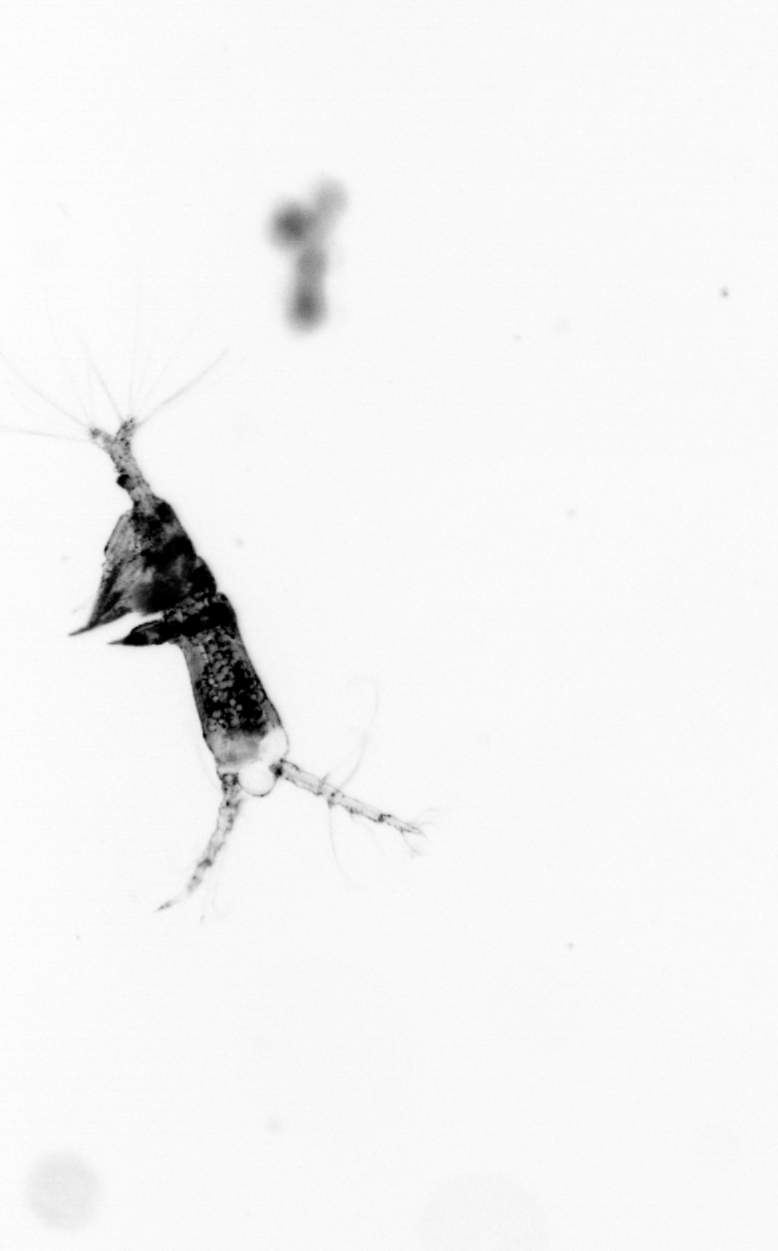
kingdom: Animalia
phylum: Arthropoda
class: Copepoda
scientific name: Copepoda
